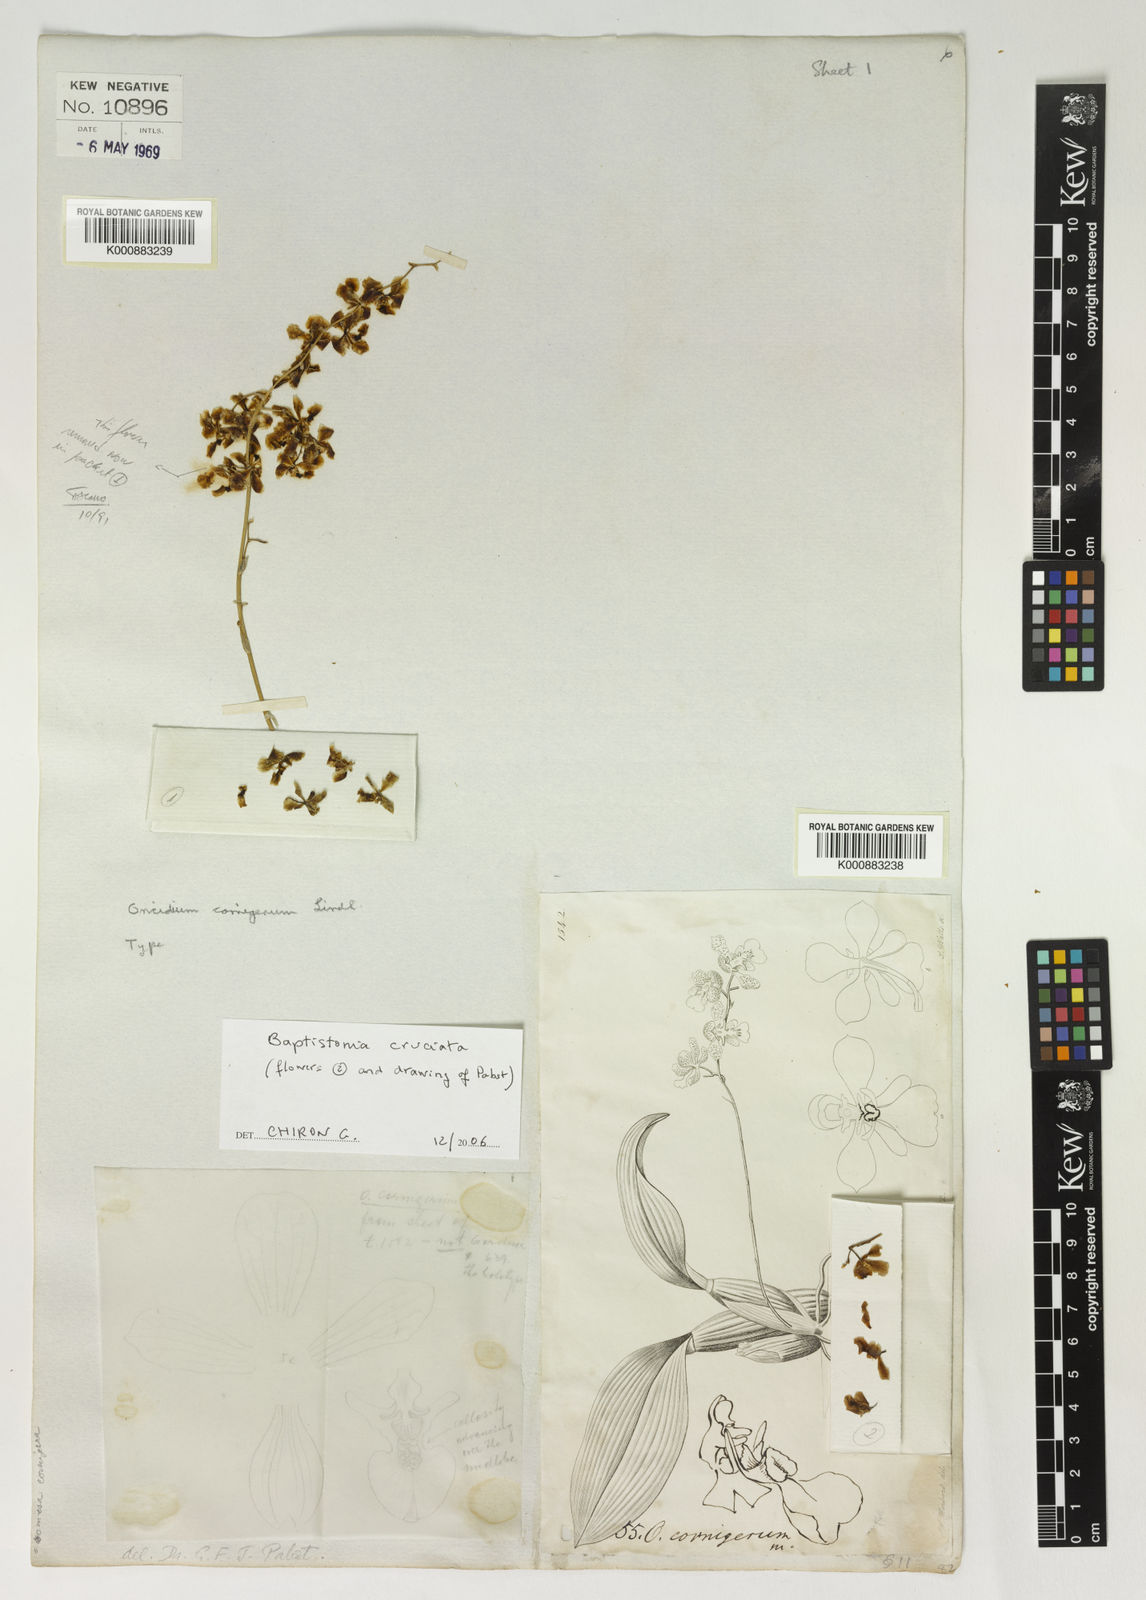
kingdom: Plantae
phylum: Tracheophyta
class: Liliopsida
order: Asparagales
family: Orchidaceae
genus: Gomesa
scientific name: Gomesa cornigera
